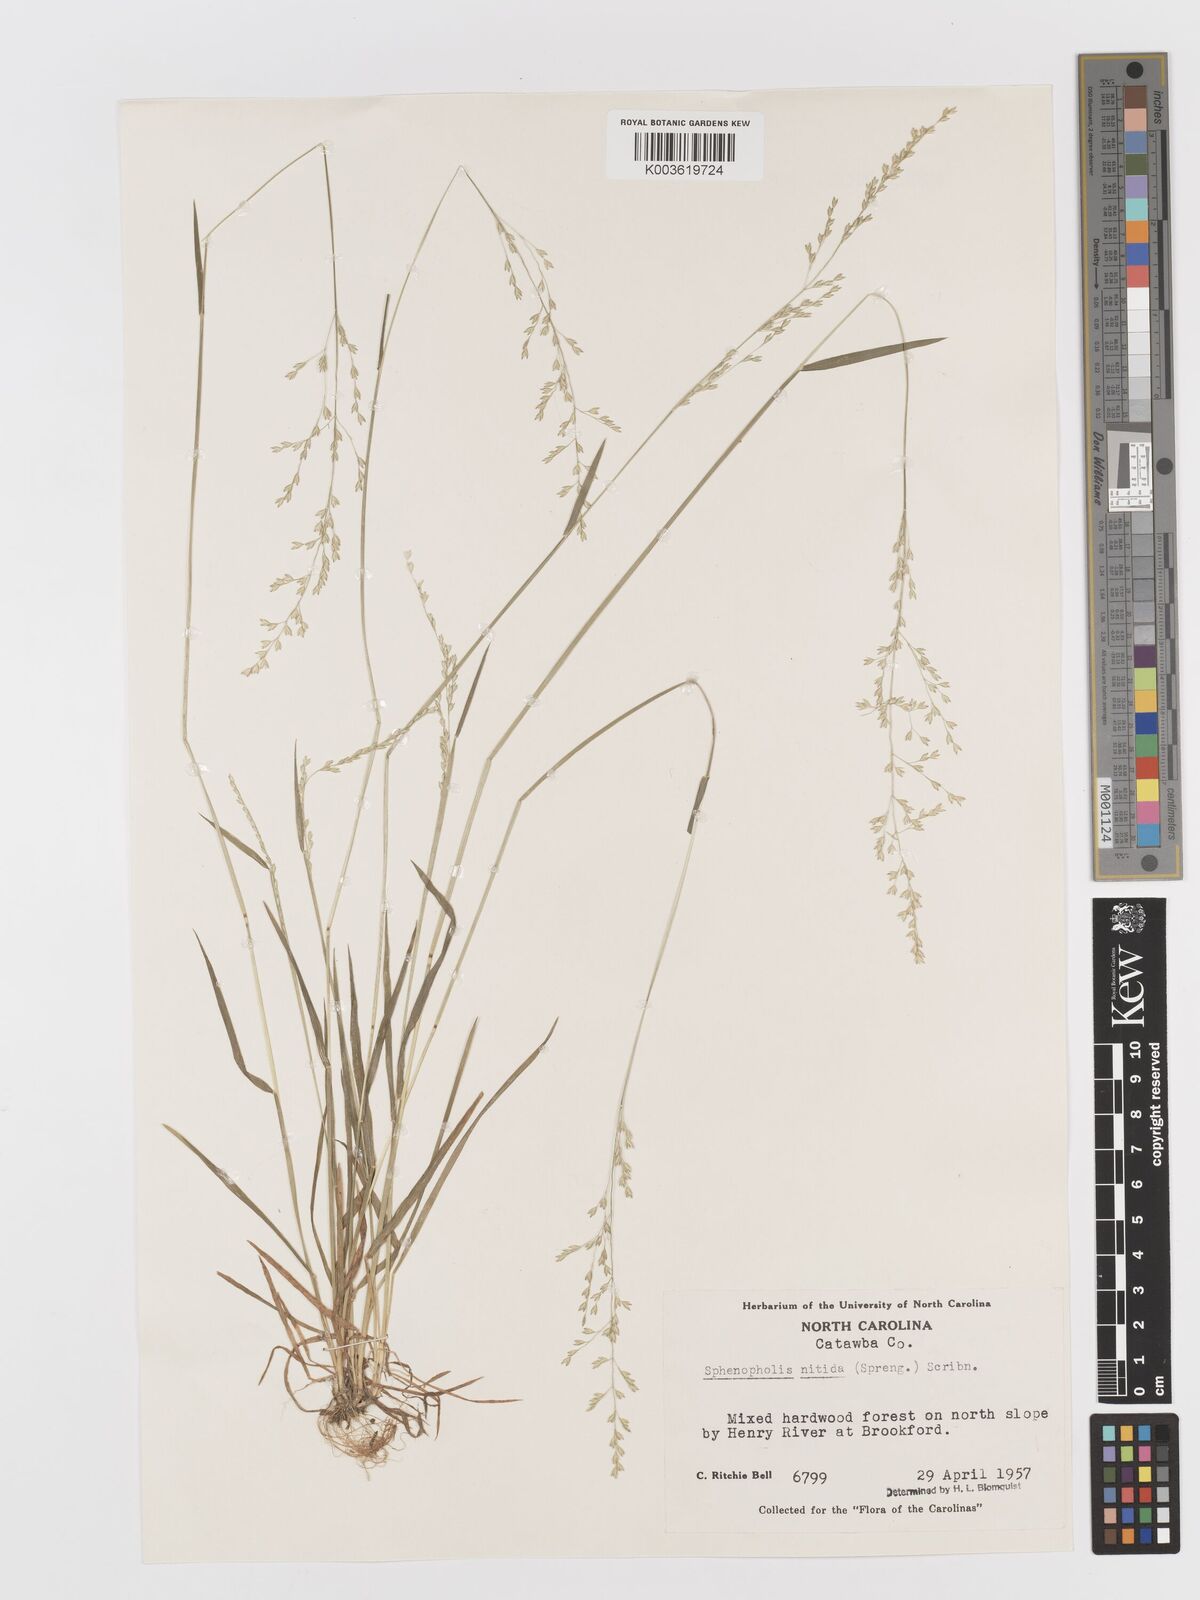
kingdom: Plantae
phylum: Tracheophyta
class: Liliopsida
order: Poales
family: Poaceae
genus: Sphenopholis
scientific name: Sphenopholis nitida
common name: Shiny wedgegrass
